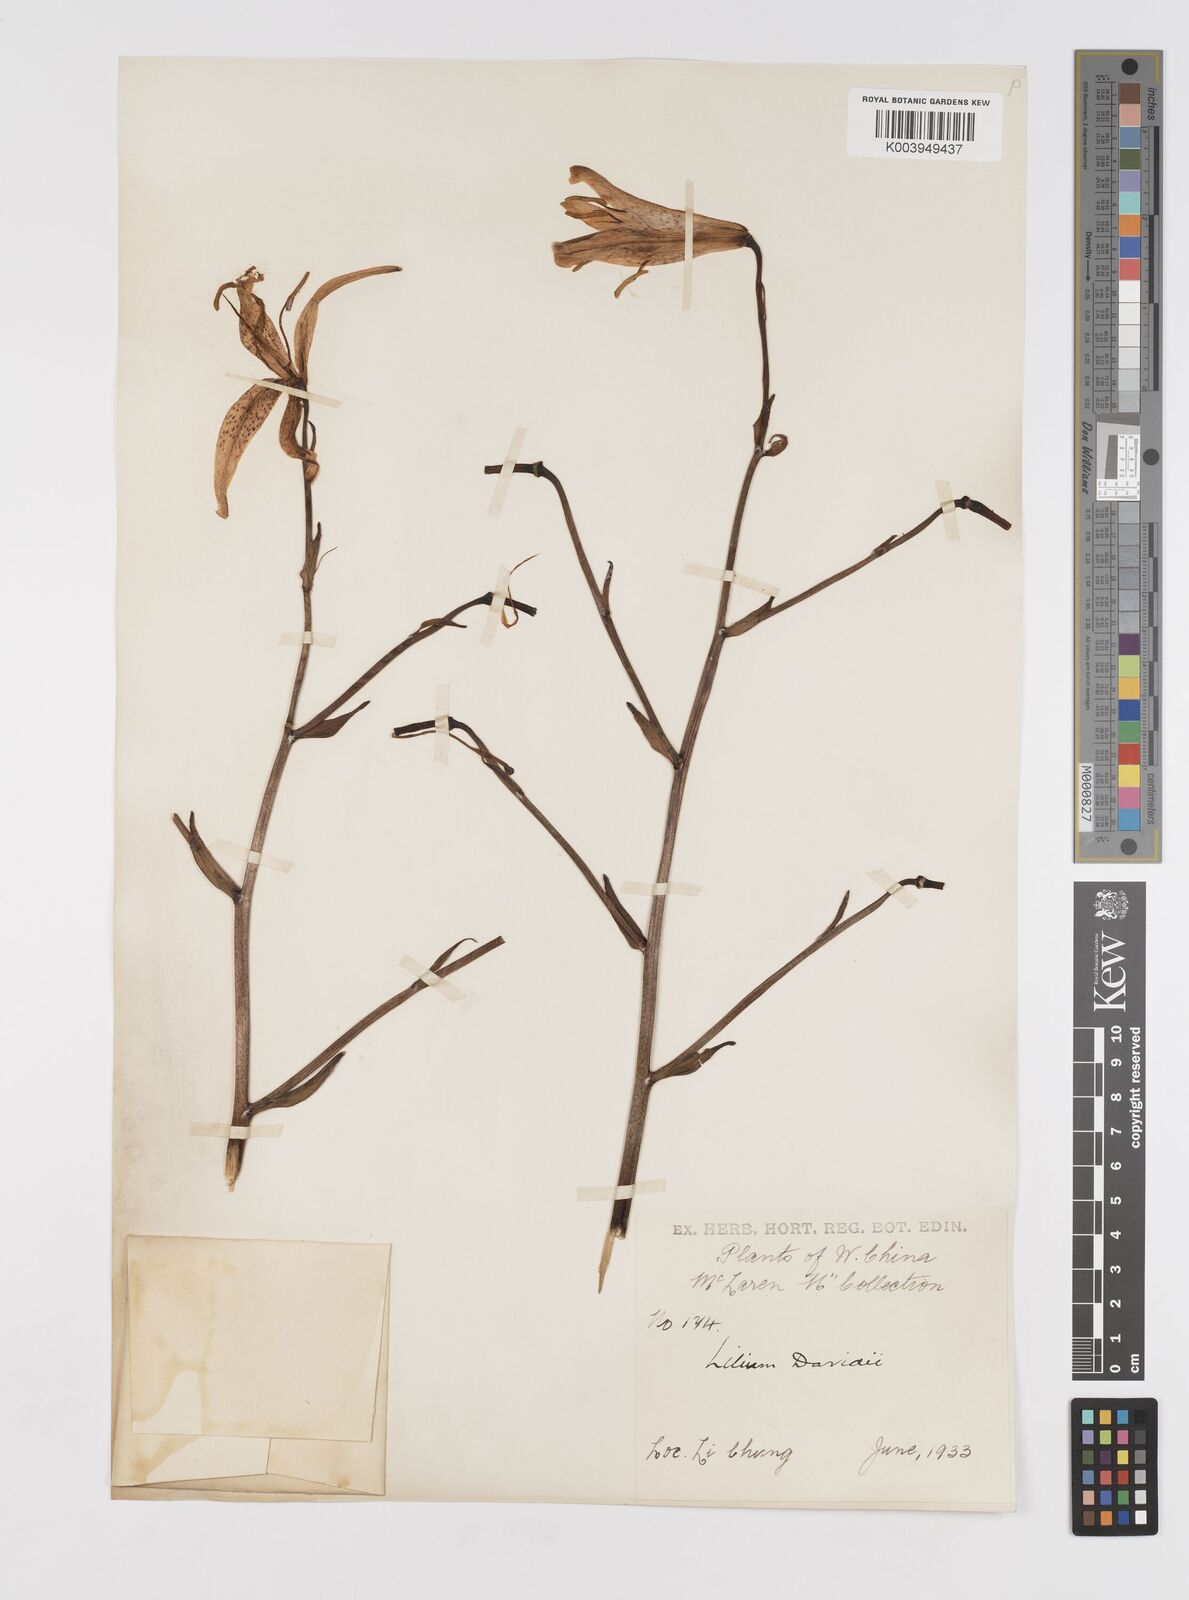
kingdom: Plantae
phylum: Tracheophyta
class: Liliopsida
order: Liliales
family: Liliaceae
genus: Lilium
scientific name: Lilium davidii
